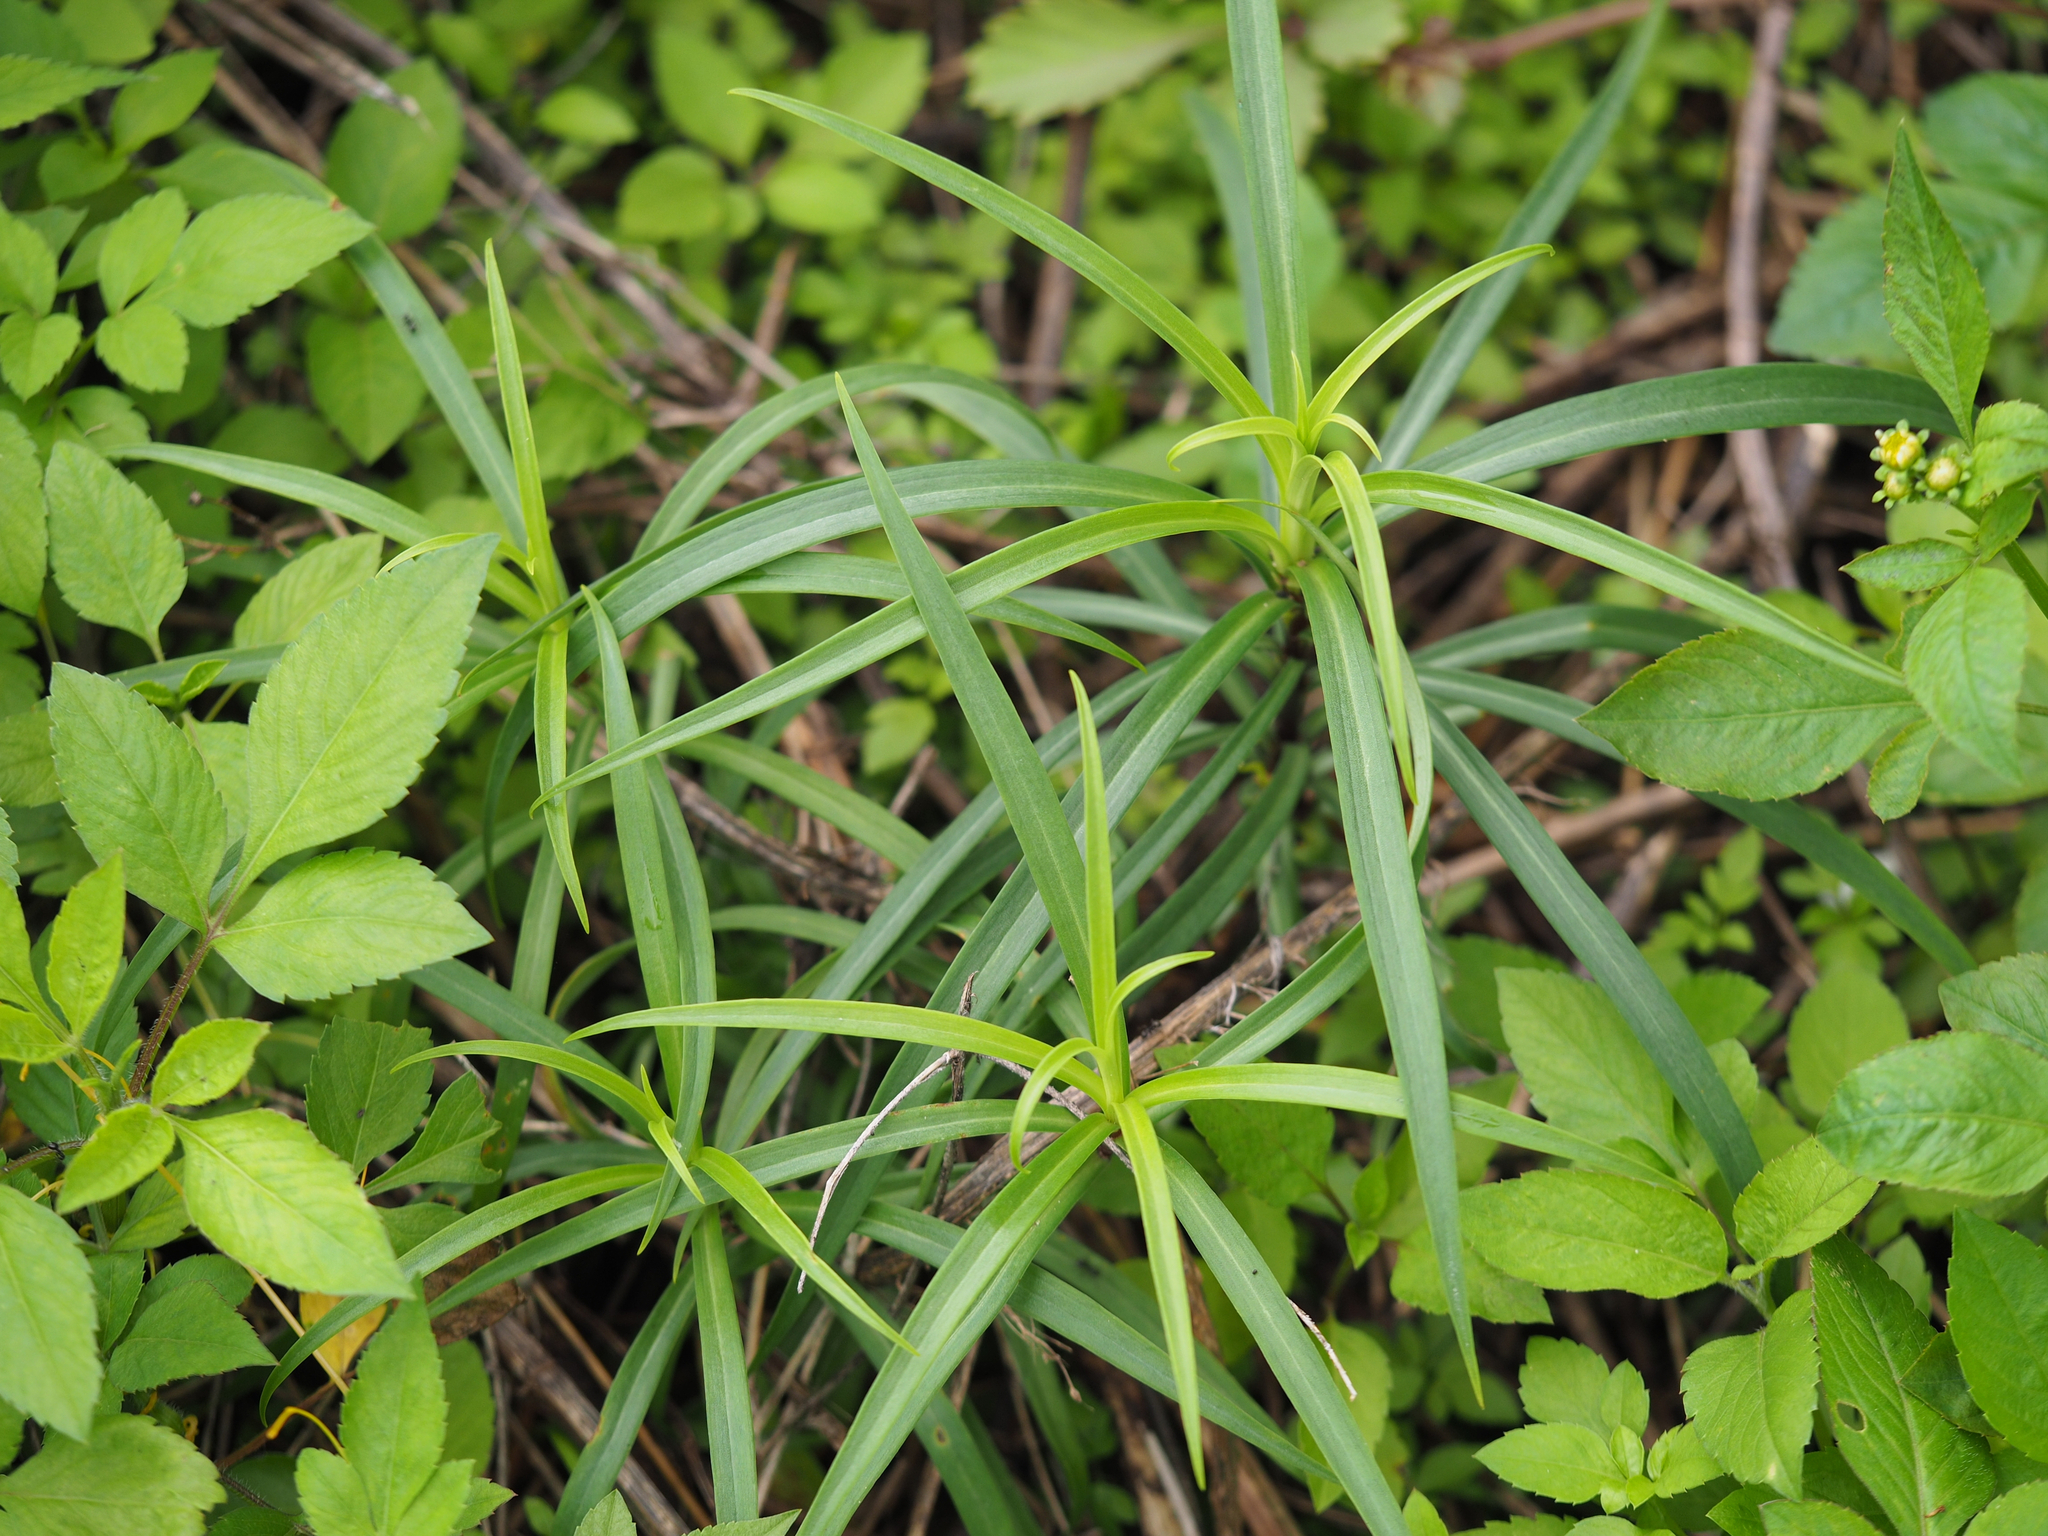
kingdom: Plantae
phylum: Tracheophyta
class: Liliopsida
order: Liliales
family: Liliaceae
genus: Lilium
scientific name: Lilium formosanum
